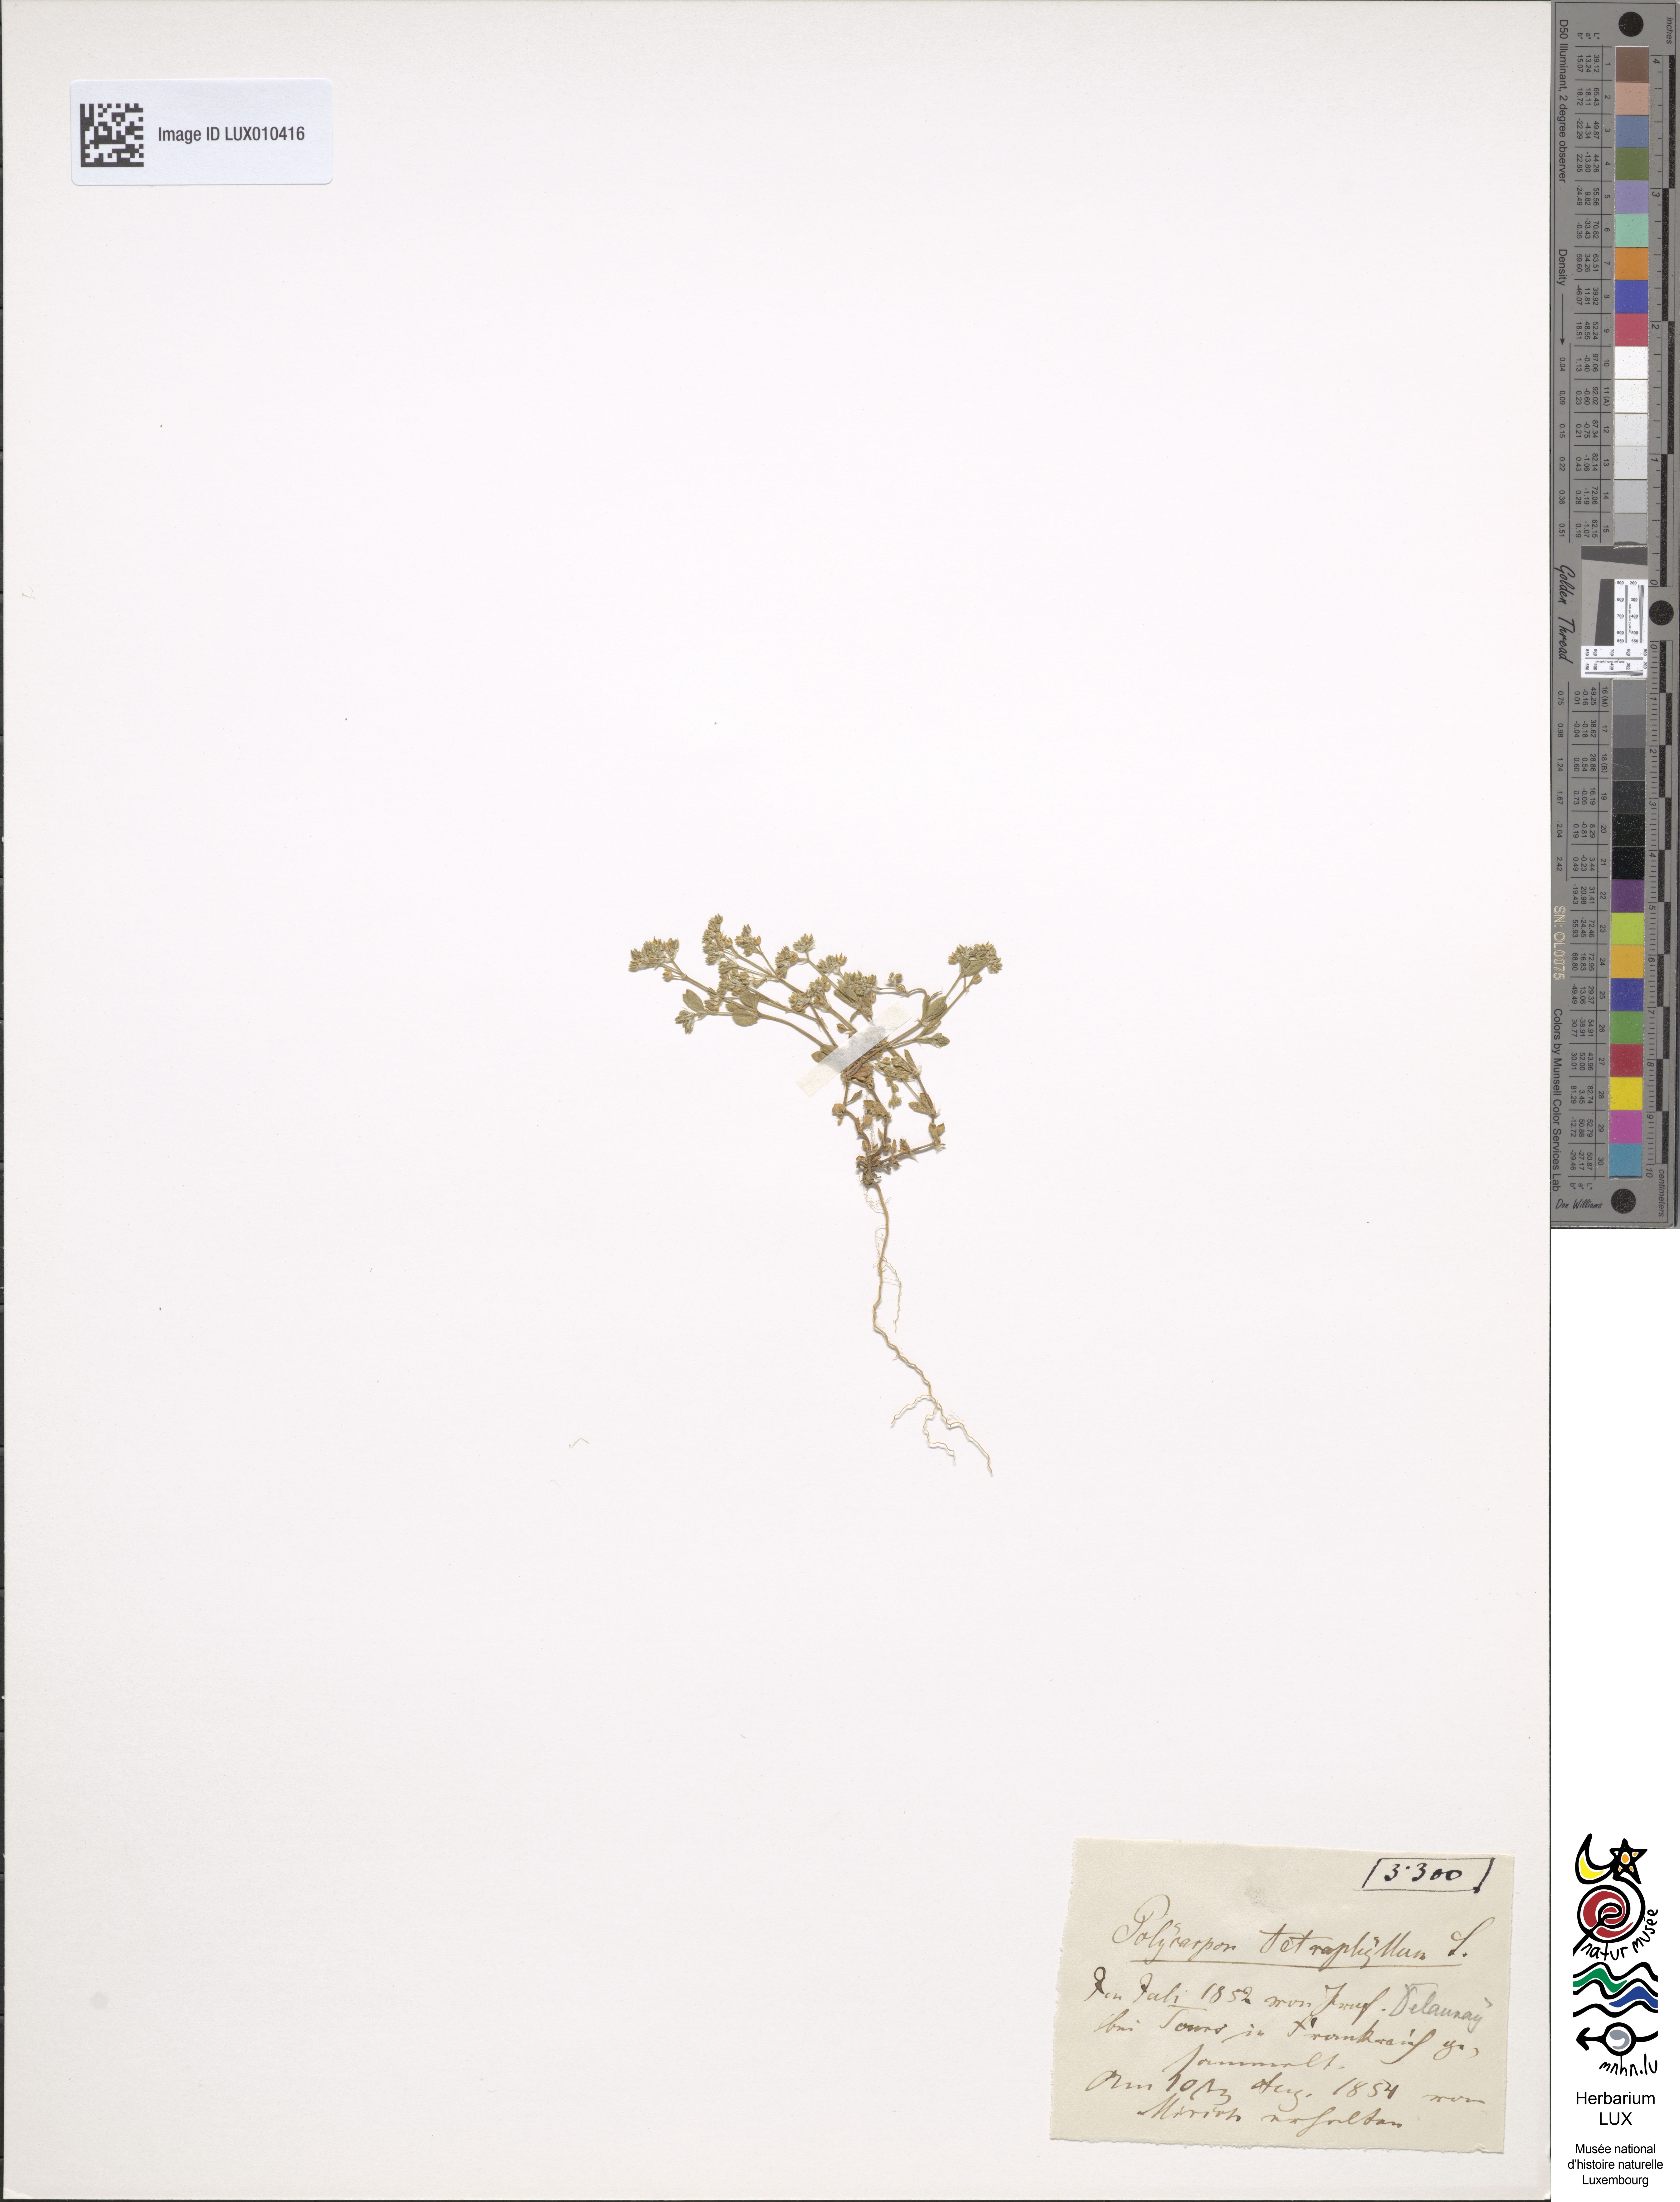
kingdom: Plantae
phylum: Tracheophyta
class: Magnoliopsida
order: Caryophyllales
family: Caryophyllaceae
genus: Polycarpon
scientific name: Polycarpon tetraphyllum
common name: Four-leaved all-seed
